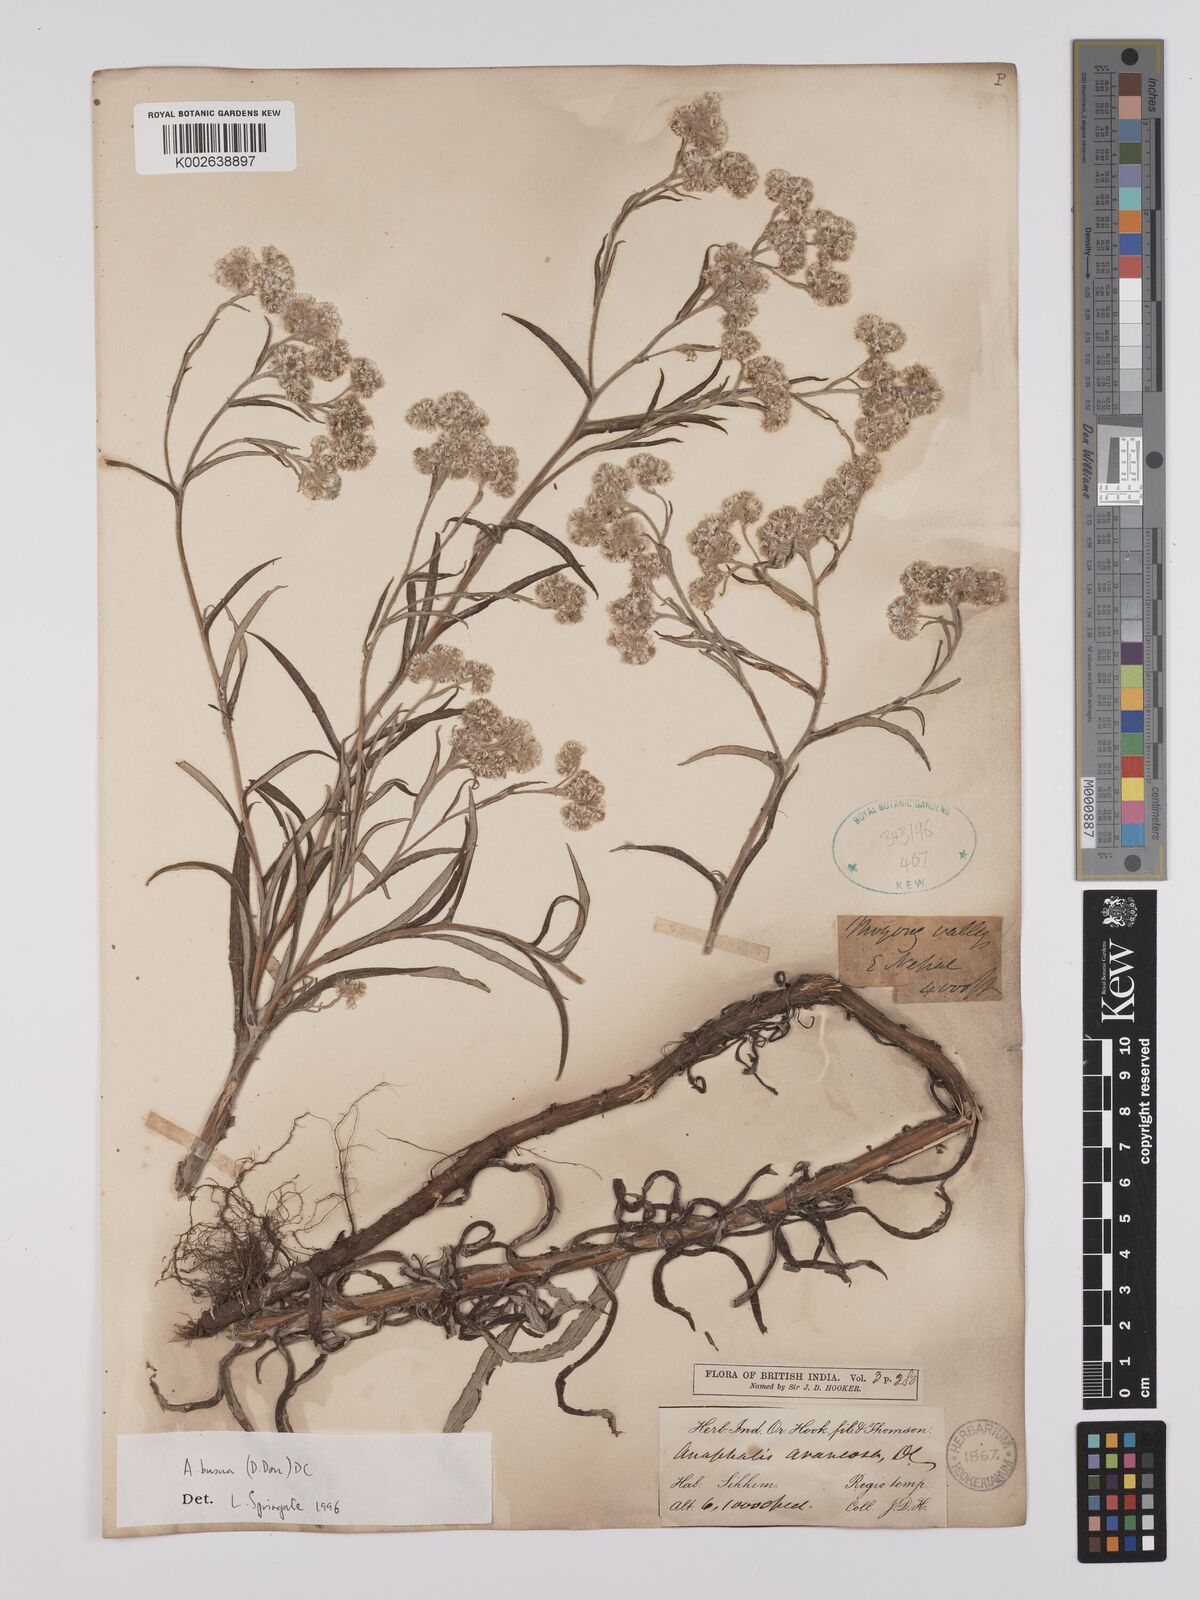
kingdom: Plantae
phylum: Tracheophyta
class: Magnoliopsida
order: Asterales
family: Asteraceae
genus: Anaphalis
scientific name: Anaphalis busua
